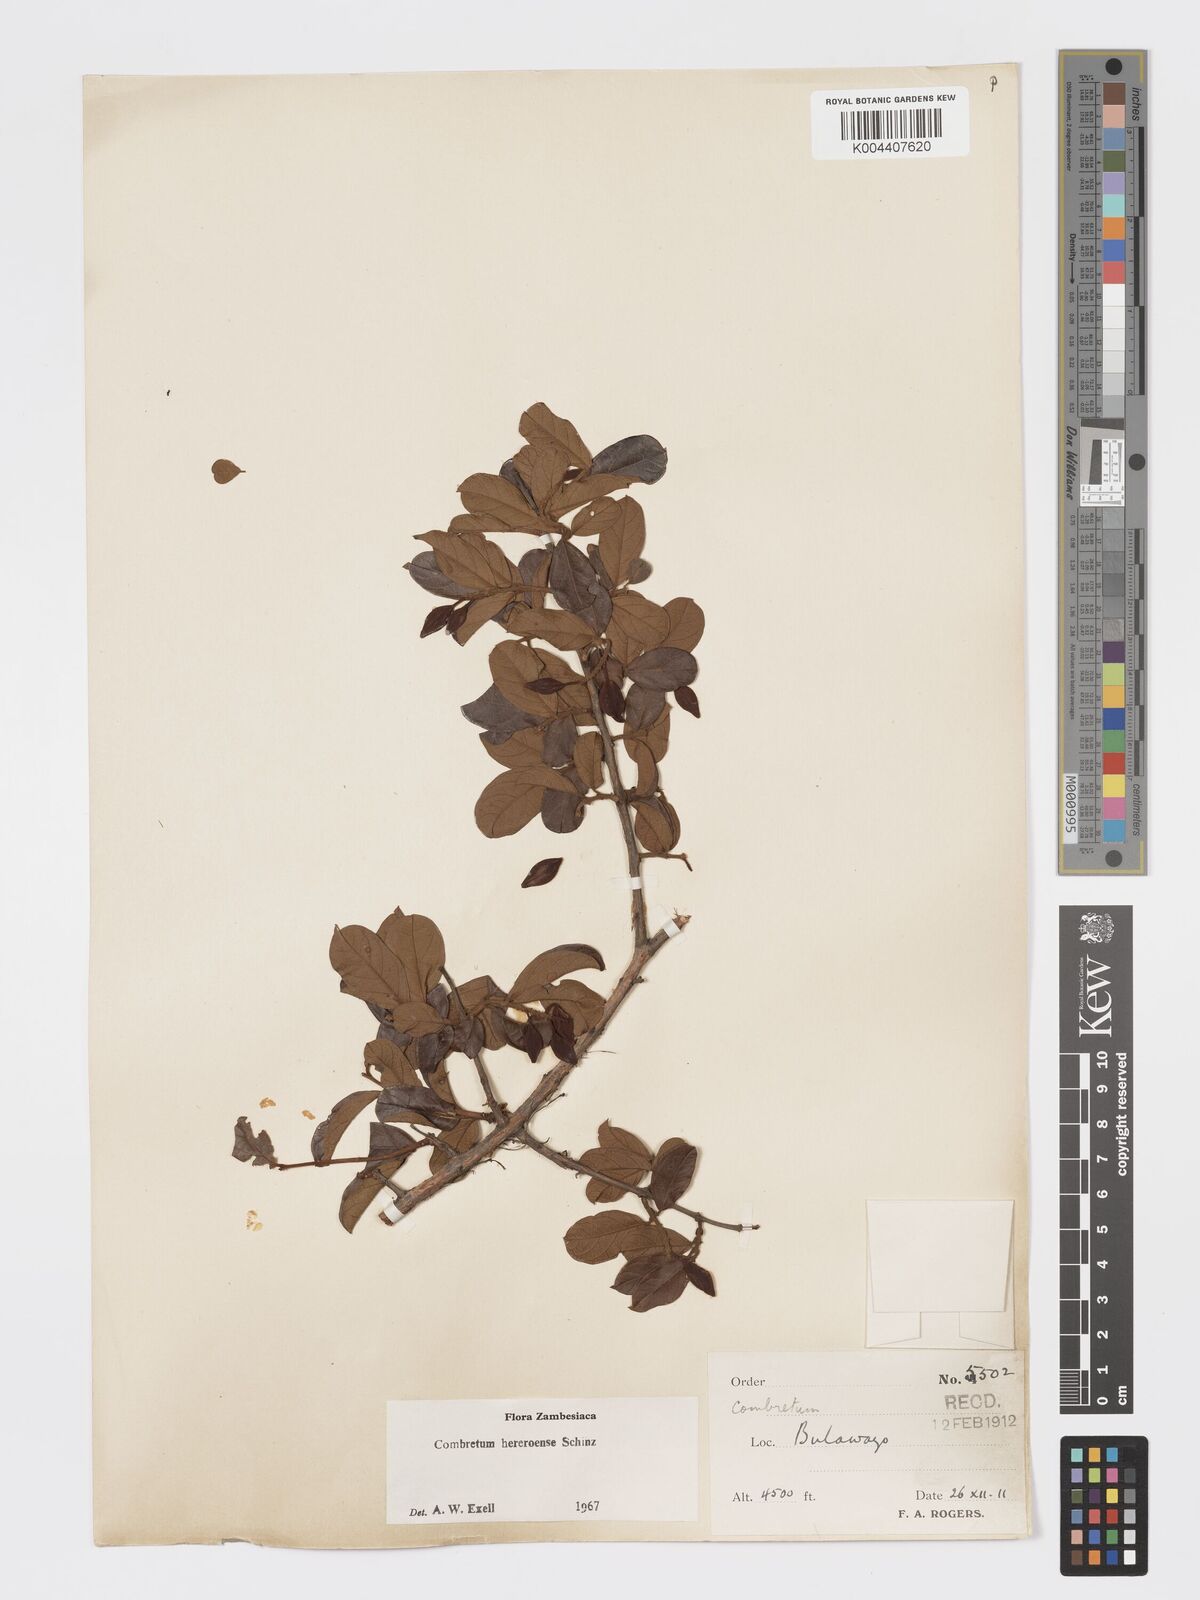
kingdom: Plantae
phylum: Tracheophyta
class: Magnoliopsida
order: Myrtales
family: Combretaceae
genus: Combretum
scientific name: Combretum hereroense
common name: Russet bushwillow
